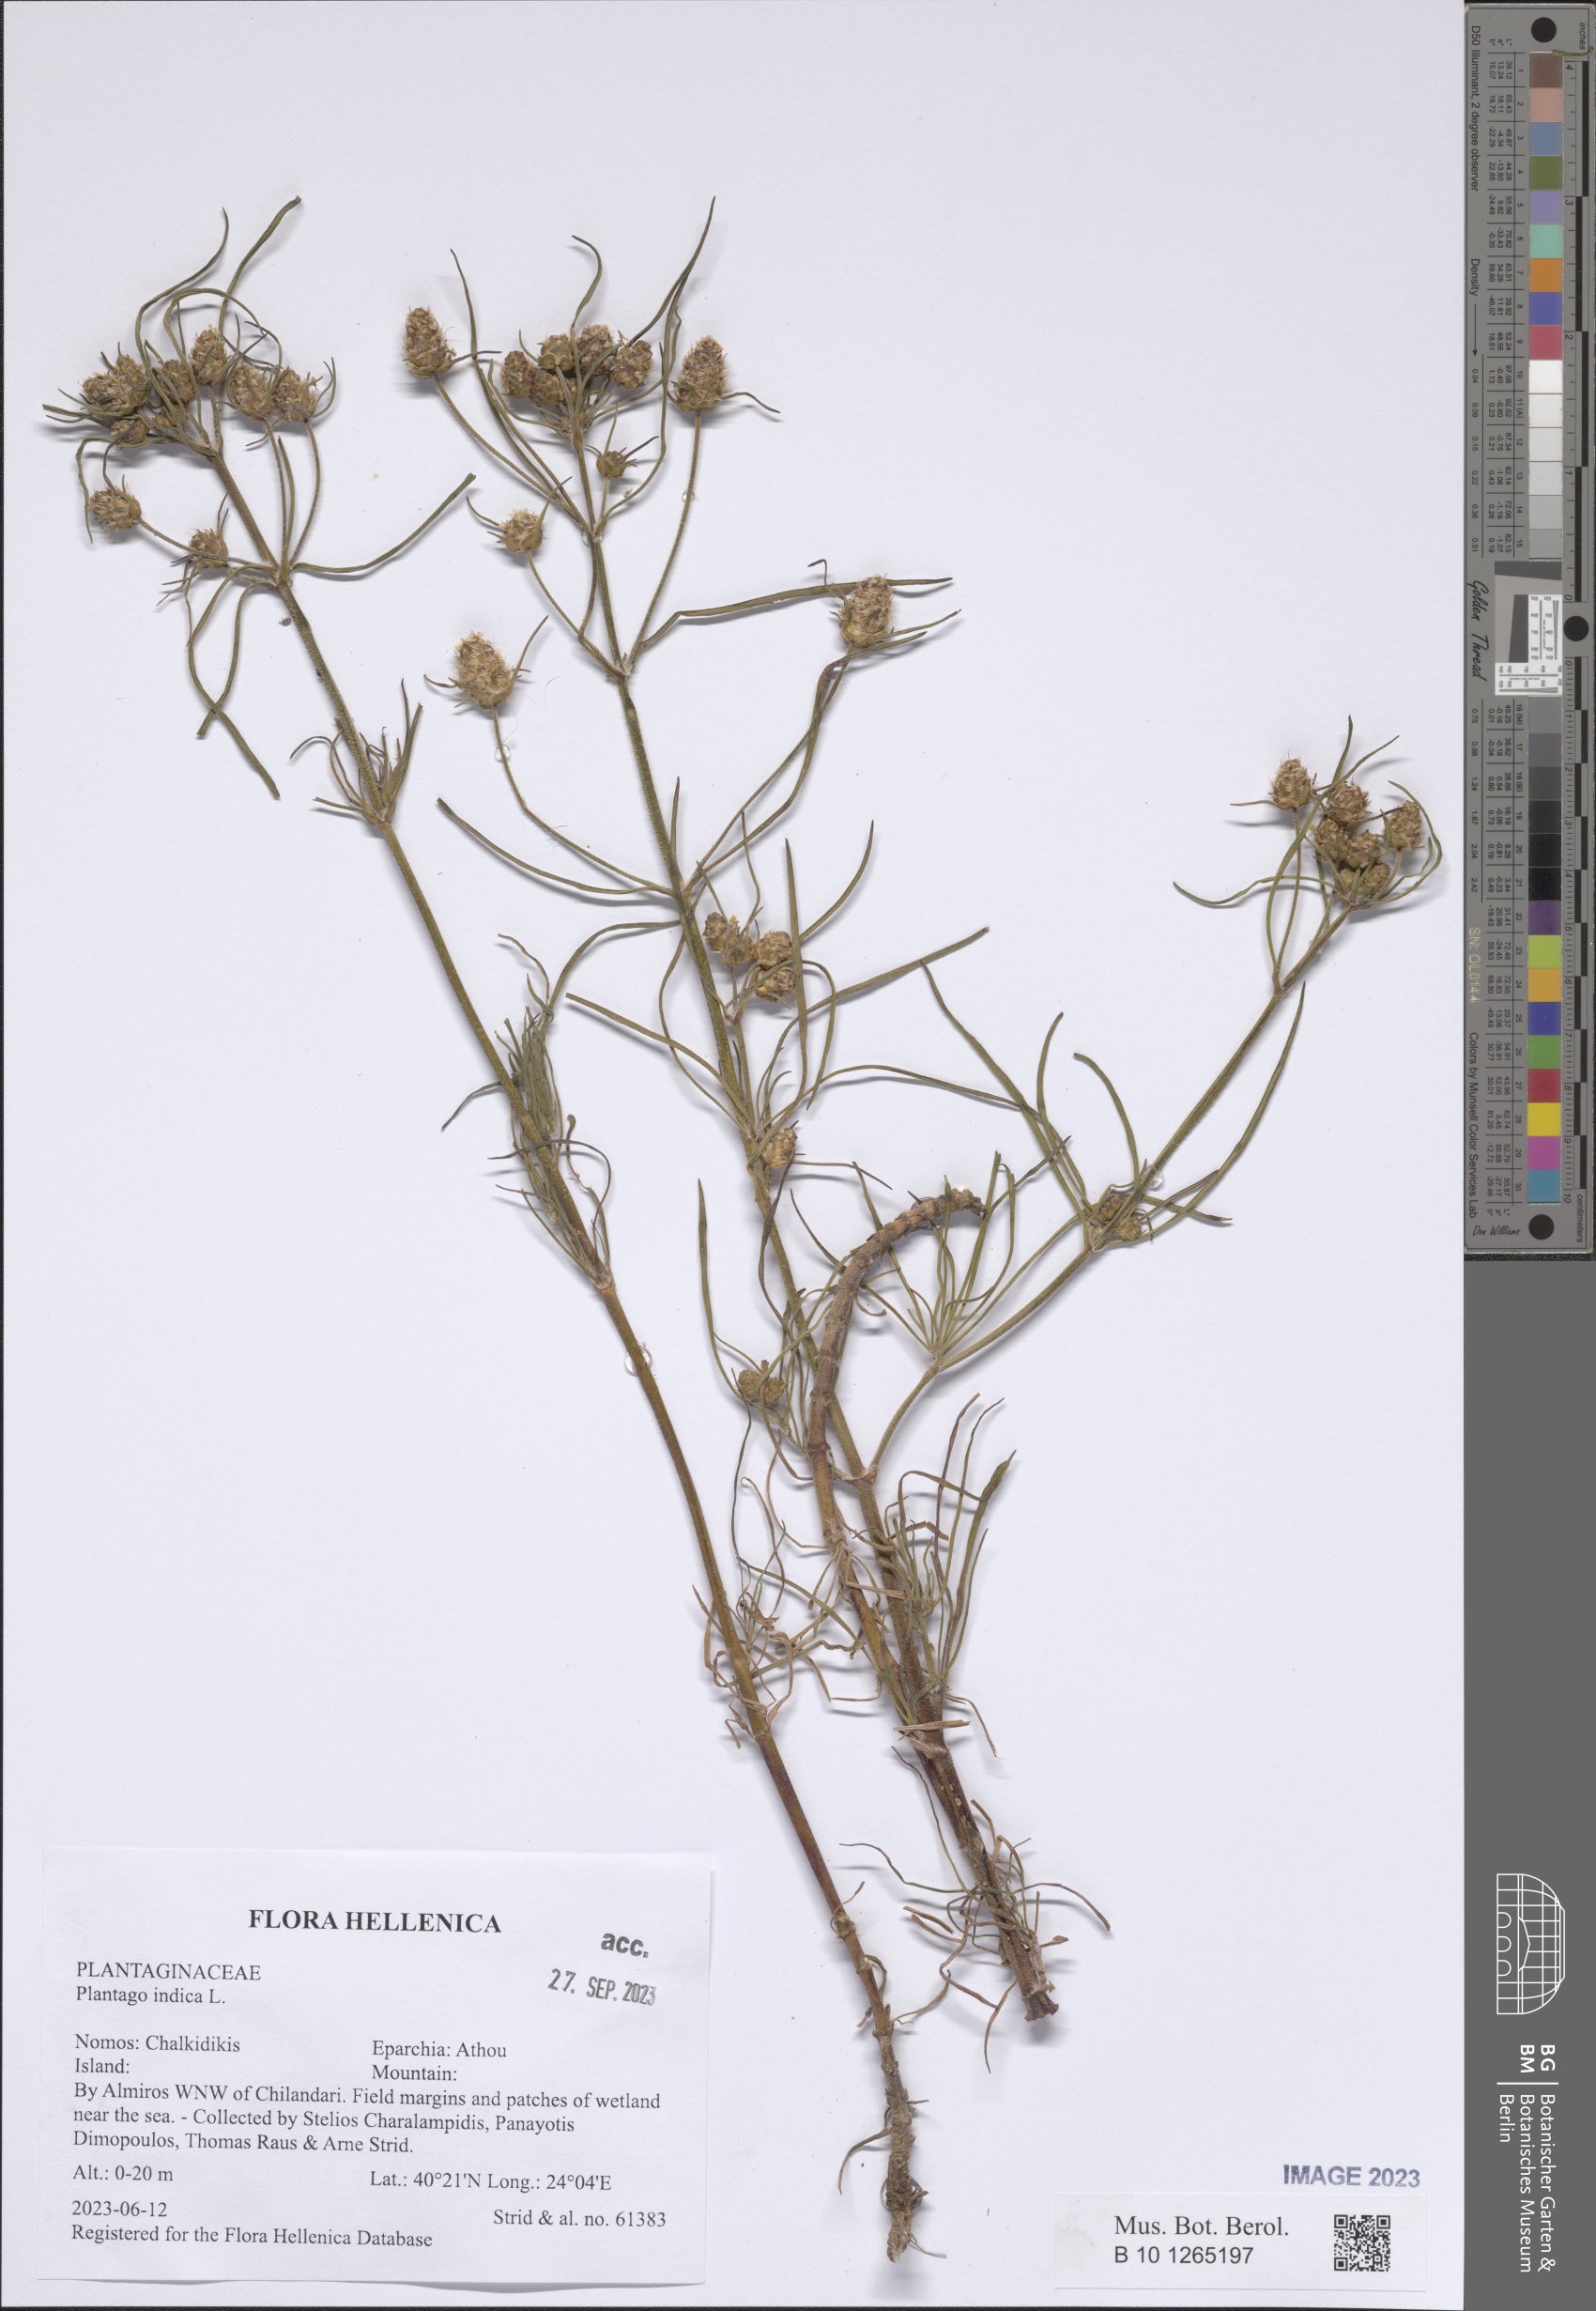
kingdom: Plantae
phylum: Tracheophyta
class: Magnoliopsida
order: Lamiales
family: Plantaginaceae
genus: Plantago
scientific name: Plantago arenaria
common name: Branched plantain
